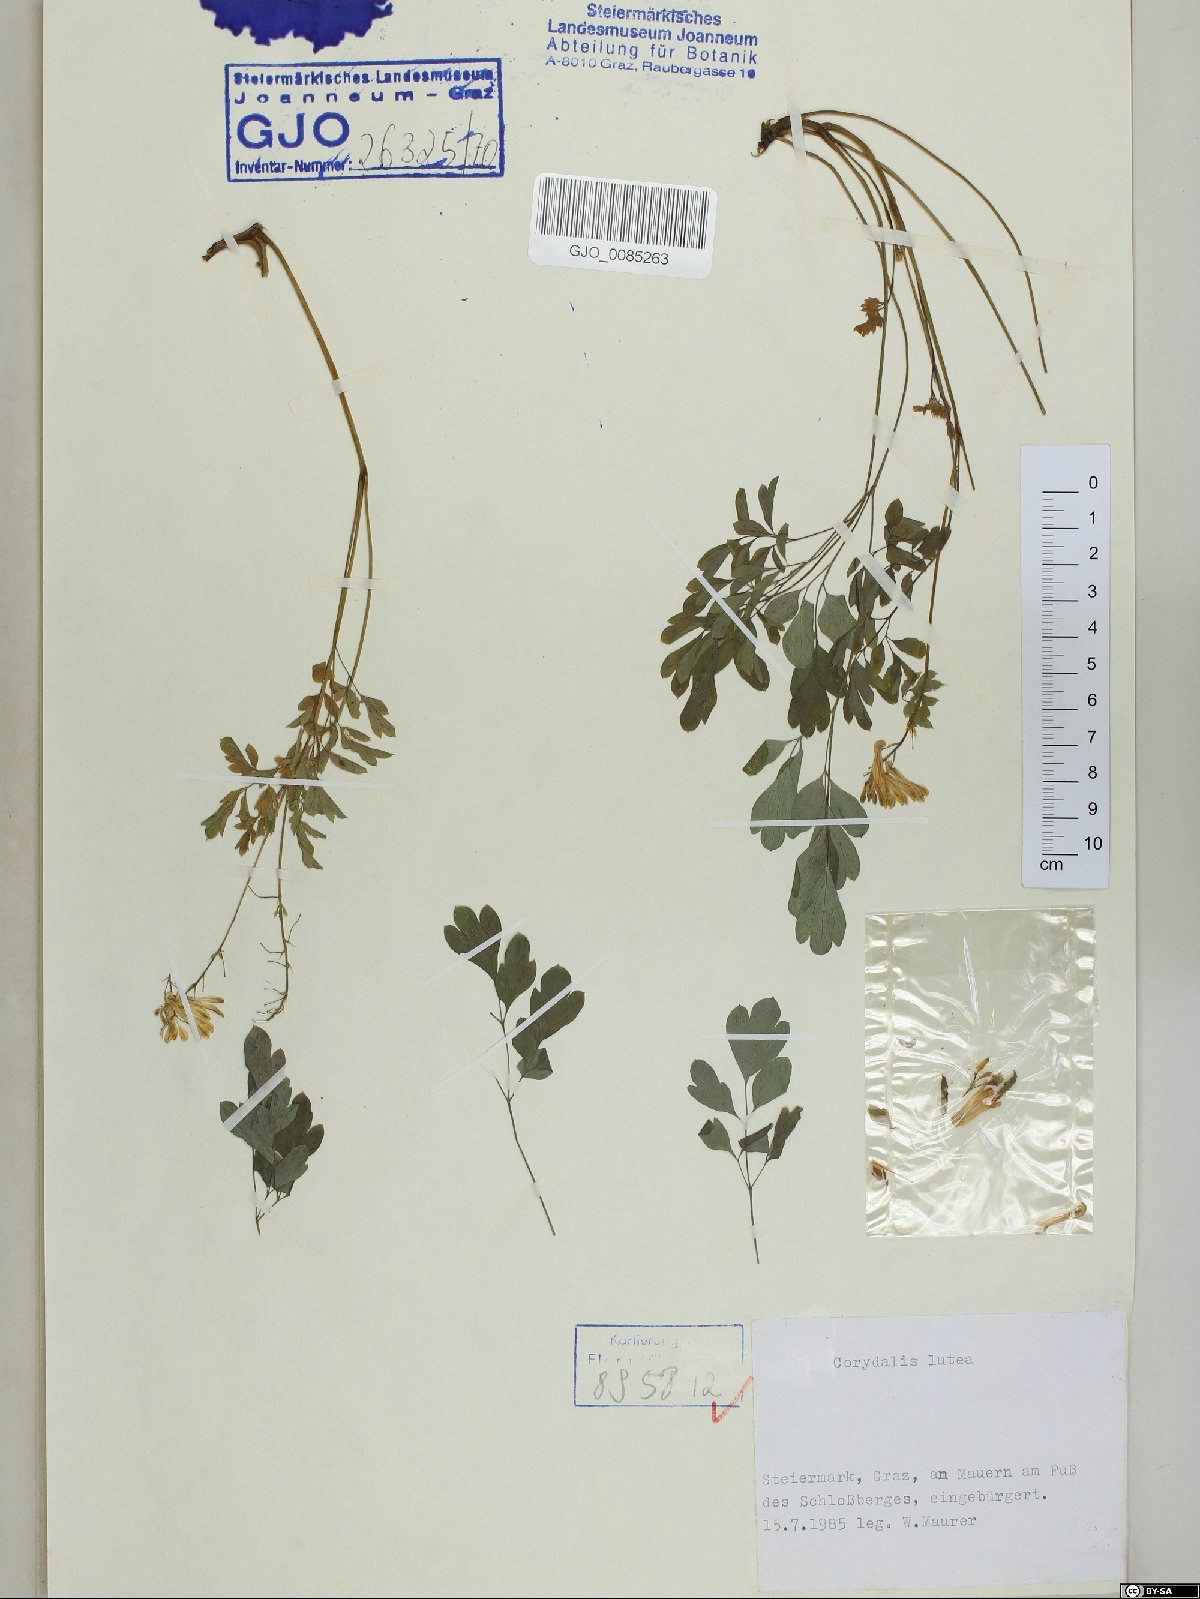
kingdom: Plantae
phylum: Tracheophyta
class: Magnoliopsida
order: Ranunculales
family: Papaveraceae
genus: Pseudofumaria
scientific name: Pseudofumaria lutea
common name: Yellow corydalis
